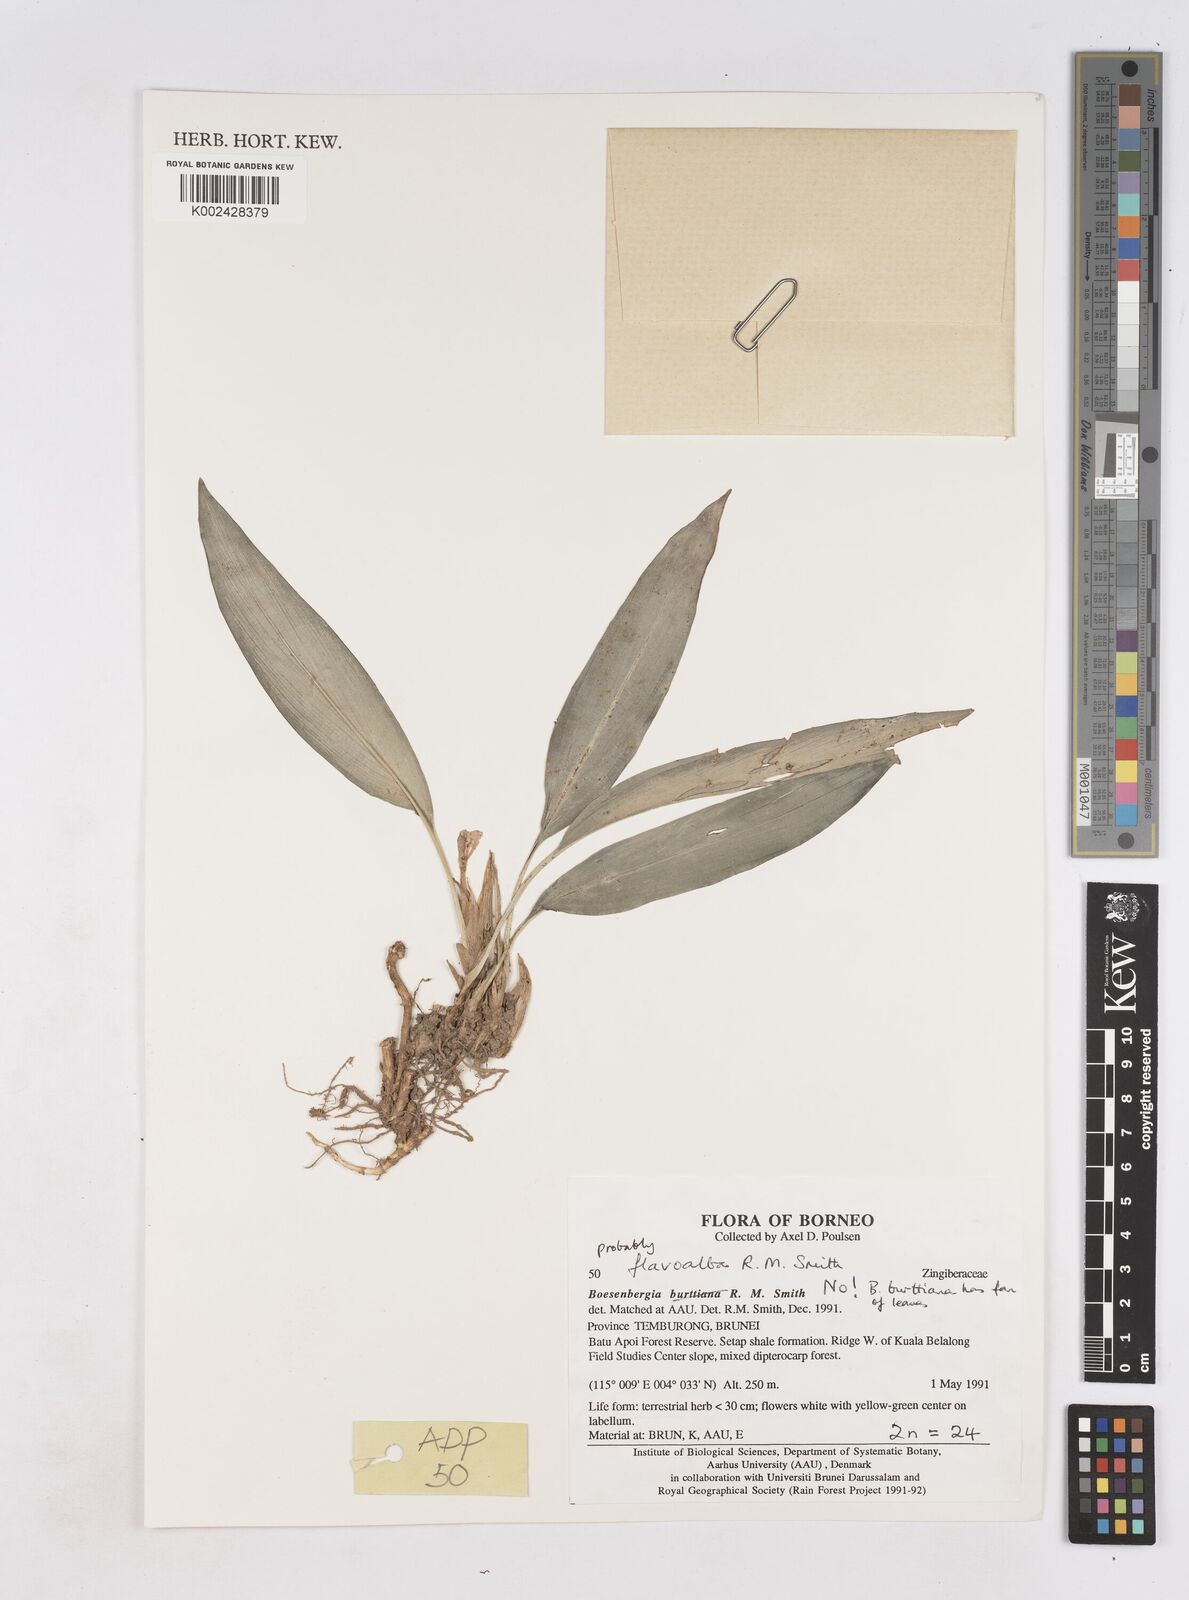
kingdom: Plantae
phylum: Tracheophyta
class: Liliopsida
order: Zingiberales
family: Zingiberaceae
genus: Boesenbergia
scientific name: Boesenbergia flavoalba
